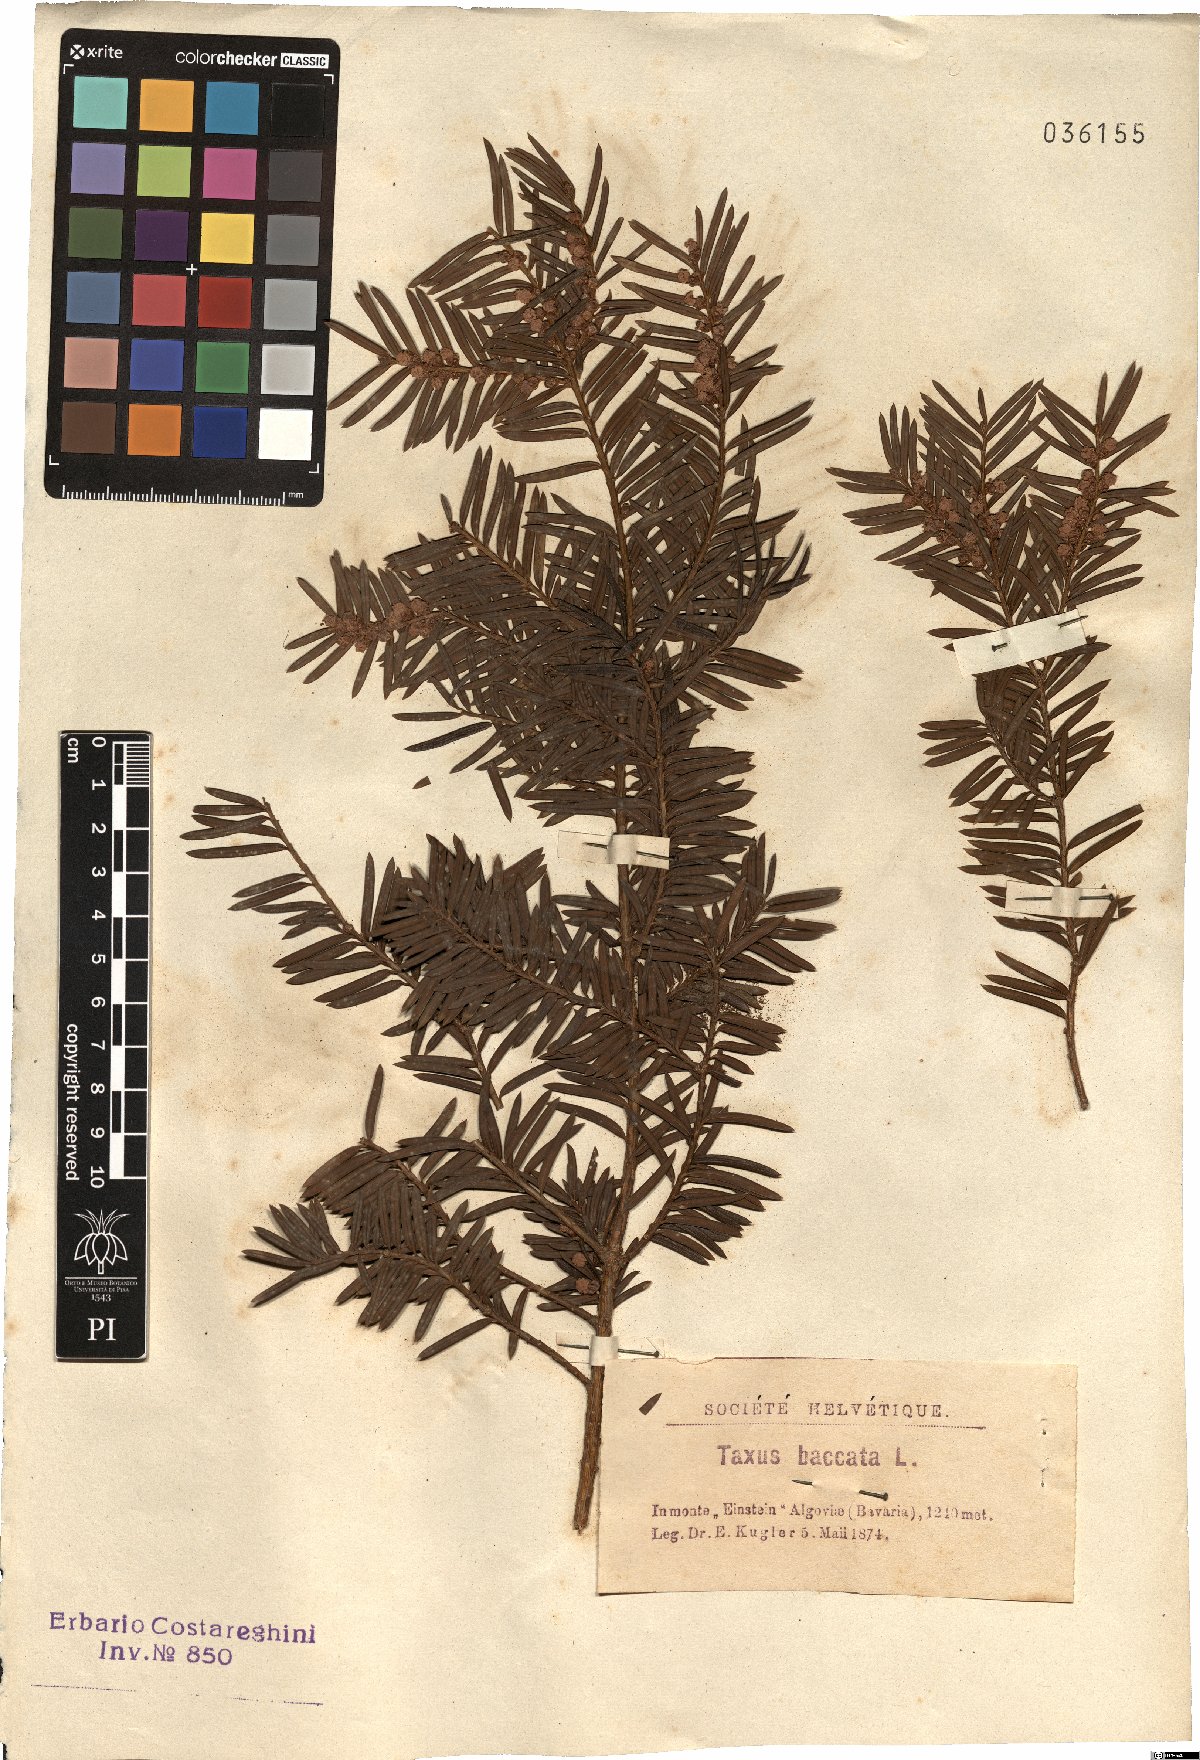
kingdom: Plantae
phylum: Tracheophyta
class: Pinopsida
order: Pinales
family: Taxaceae
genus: Taxus
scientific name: Taxus baccata
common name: Yew
